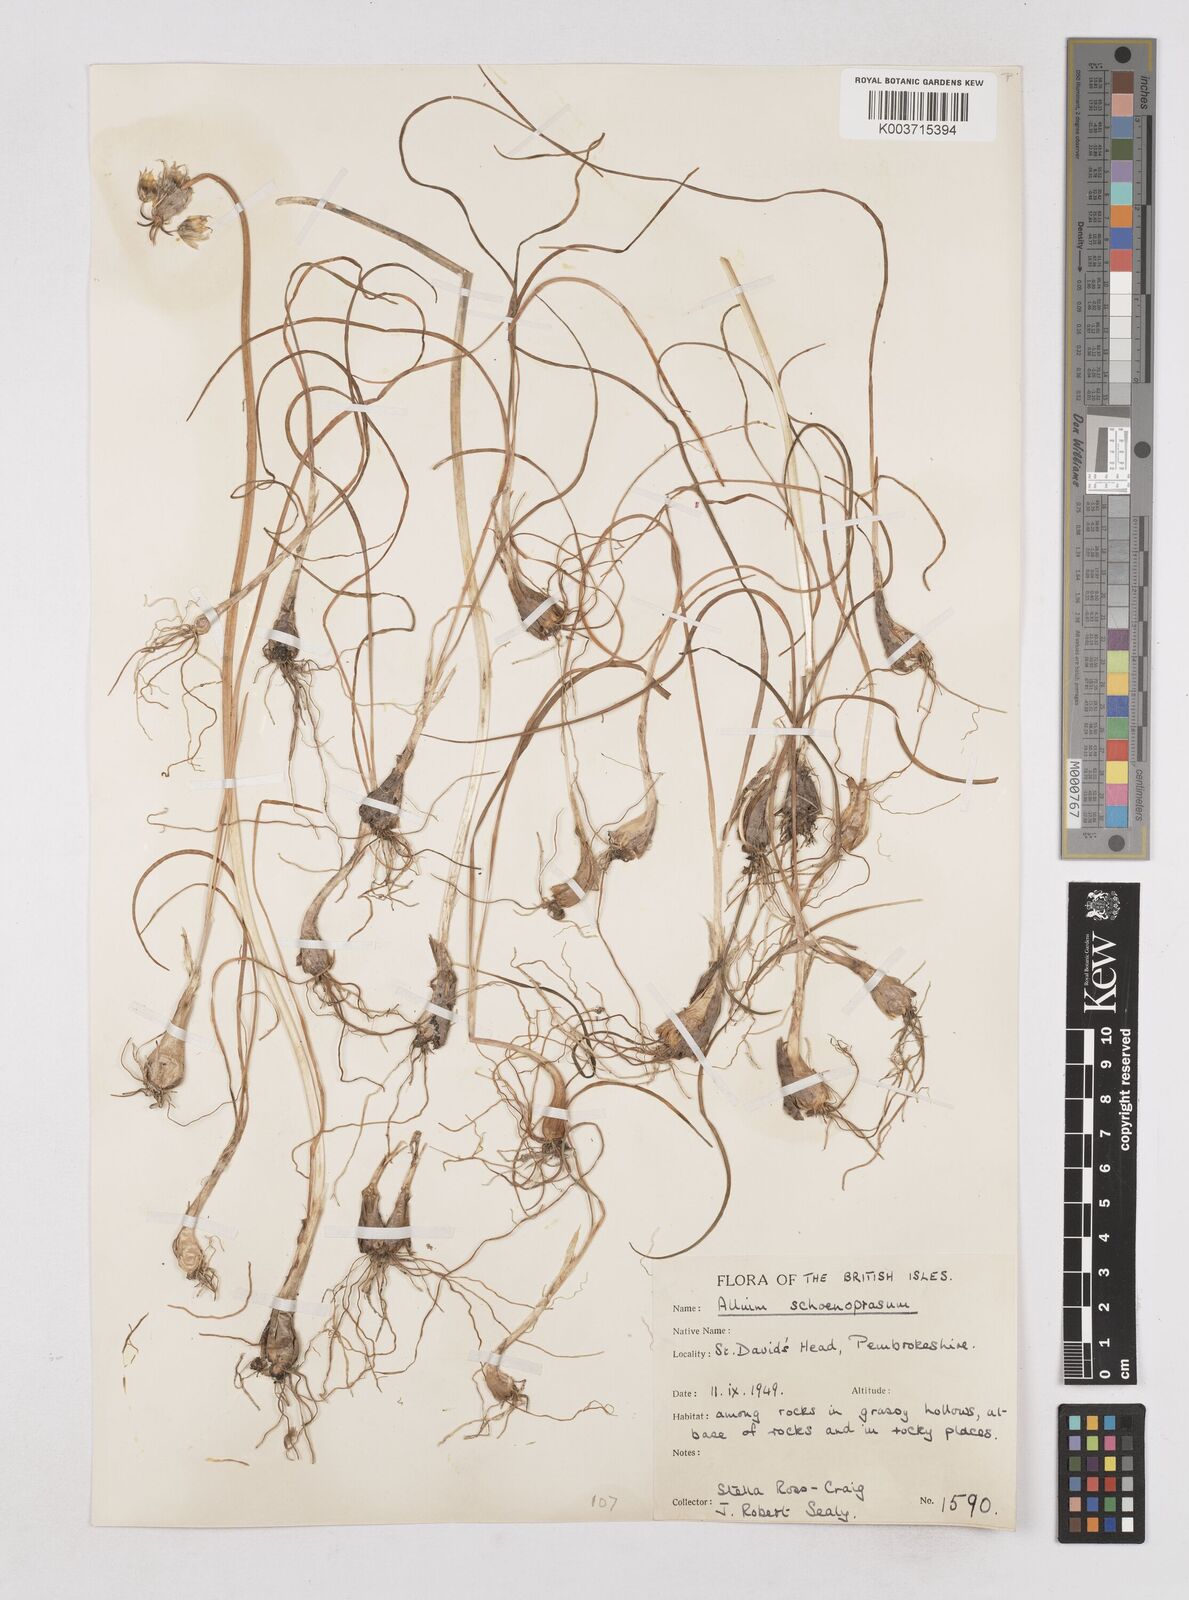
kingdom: Plantae
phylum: Tracheophyta
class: Liliopsida
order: Asparagales
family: Amaryllidaceae
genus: Allium
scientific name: Allium schoenoprasum
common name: Chives
